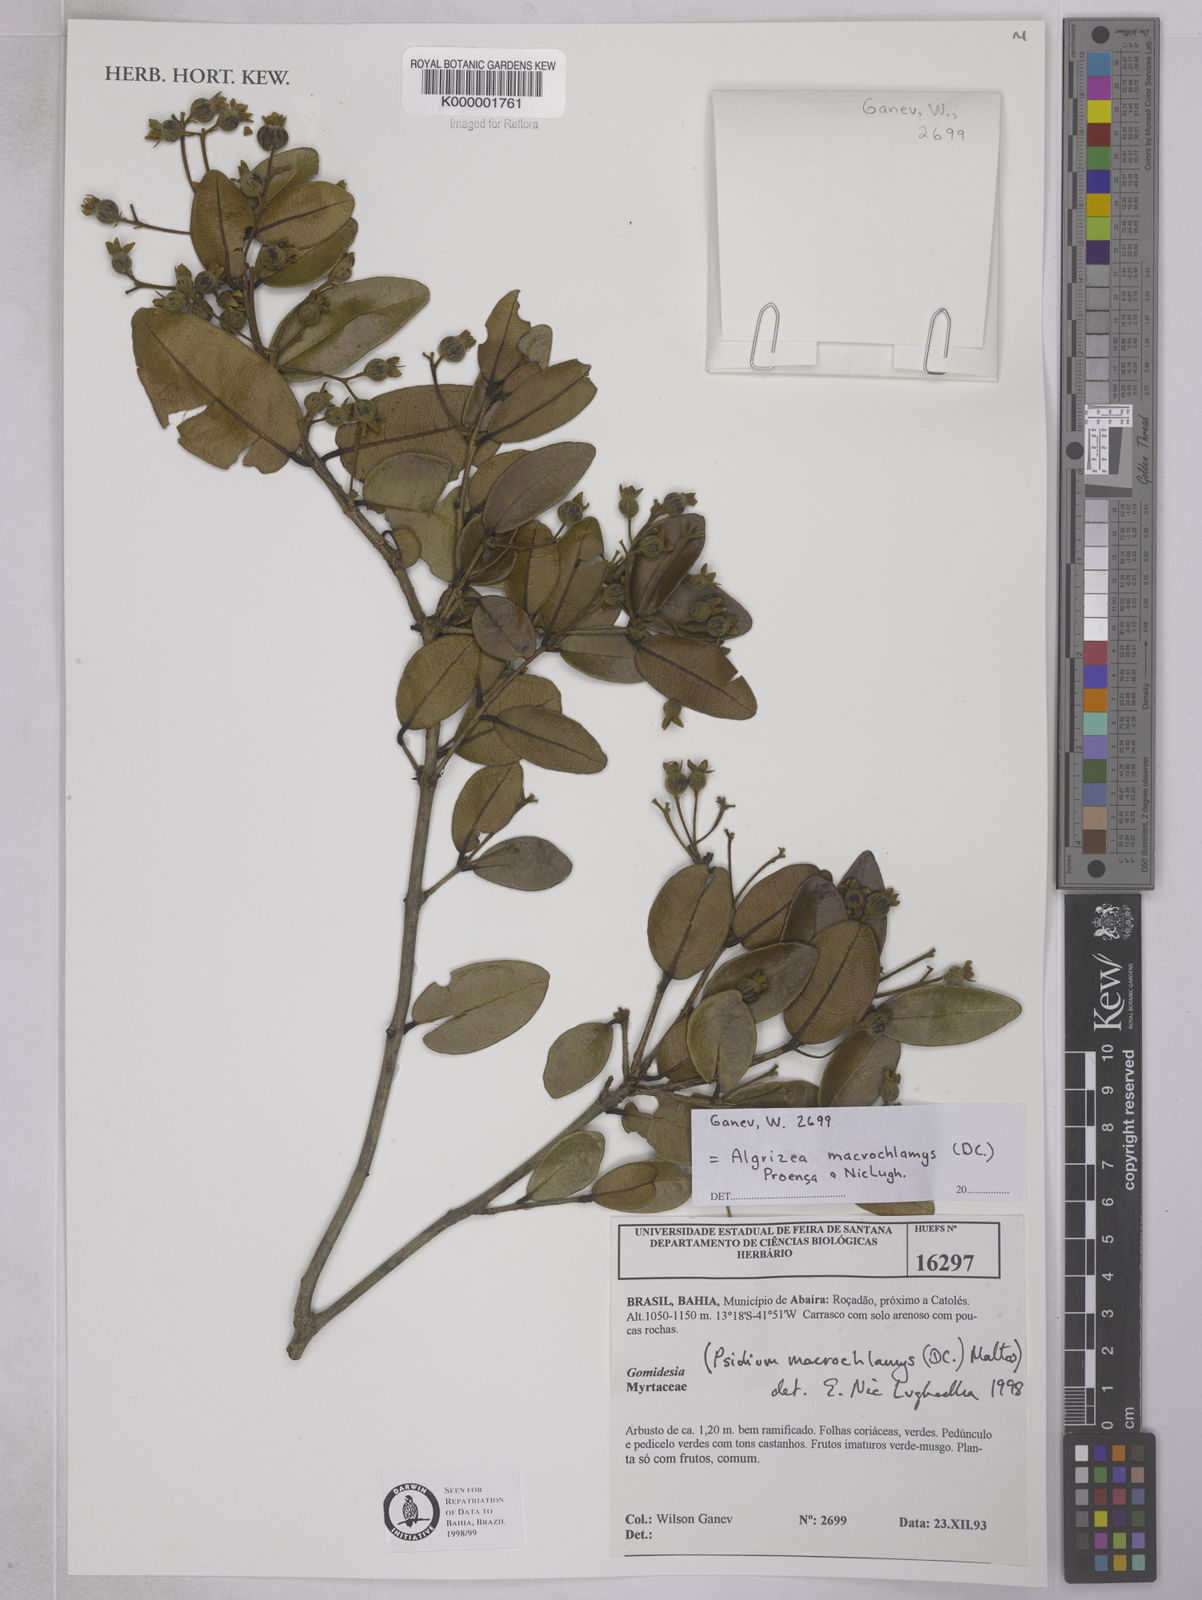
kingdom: Plantae
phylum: Tracheophyta
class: Magnoliopsida
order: Myrtales
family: Myrtaceae
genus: Algrizea
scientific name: Algrizea macrochlamys
